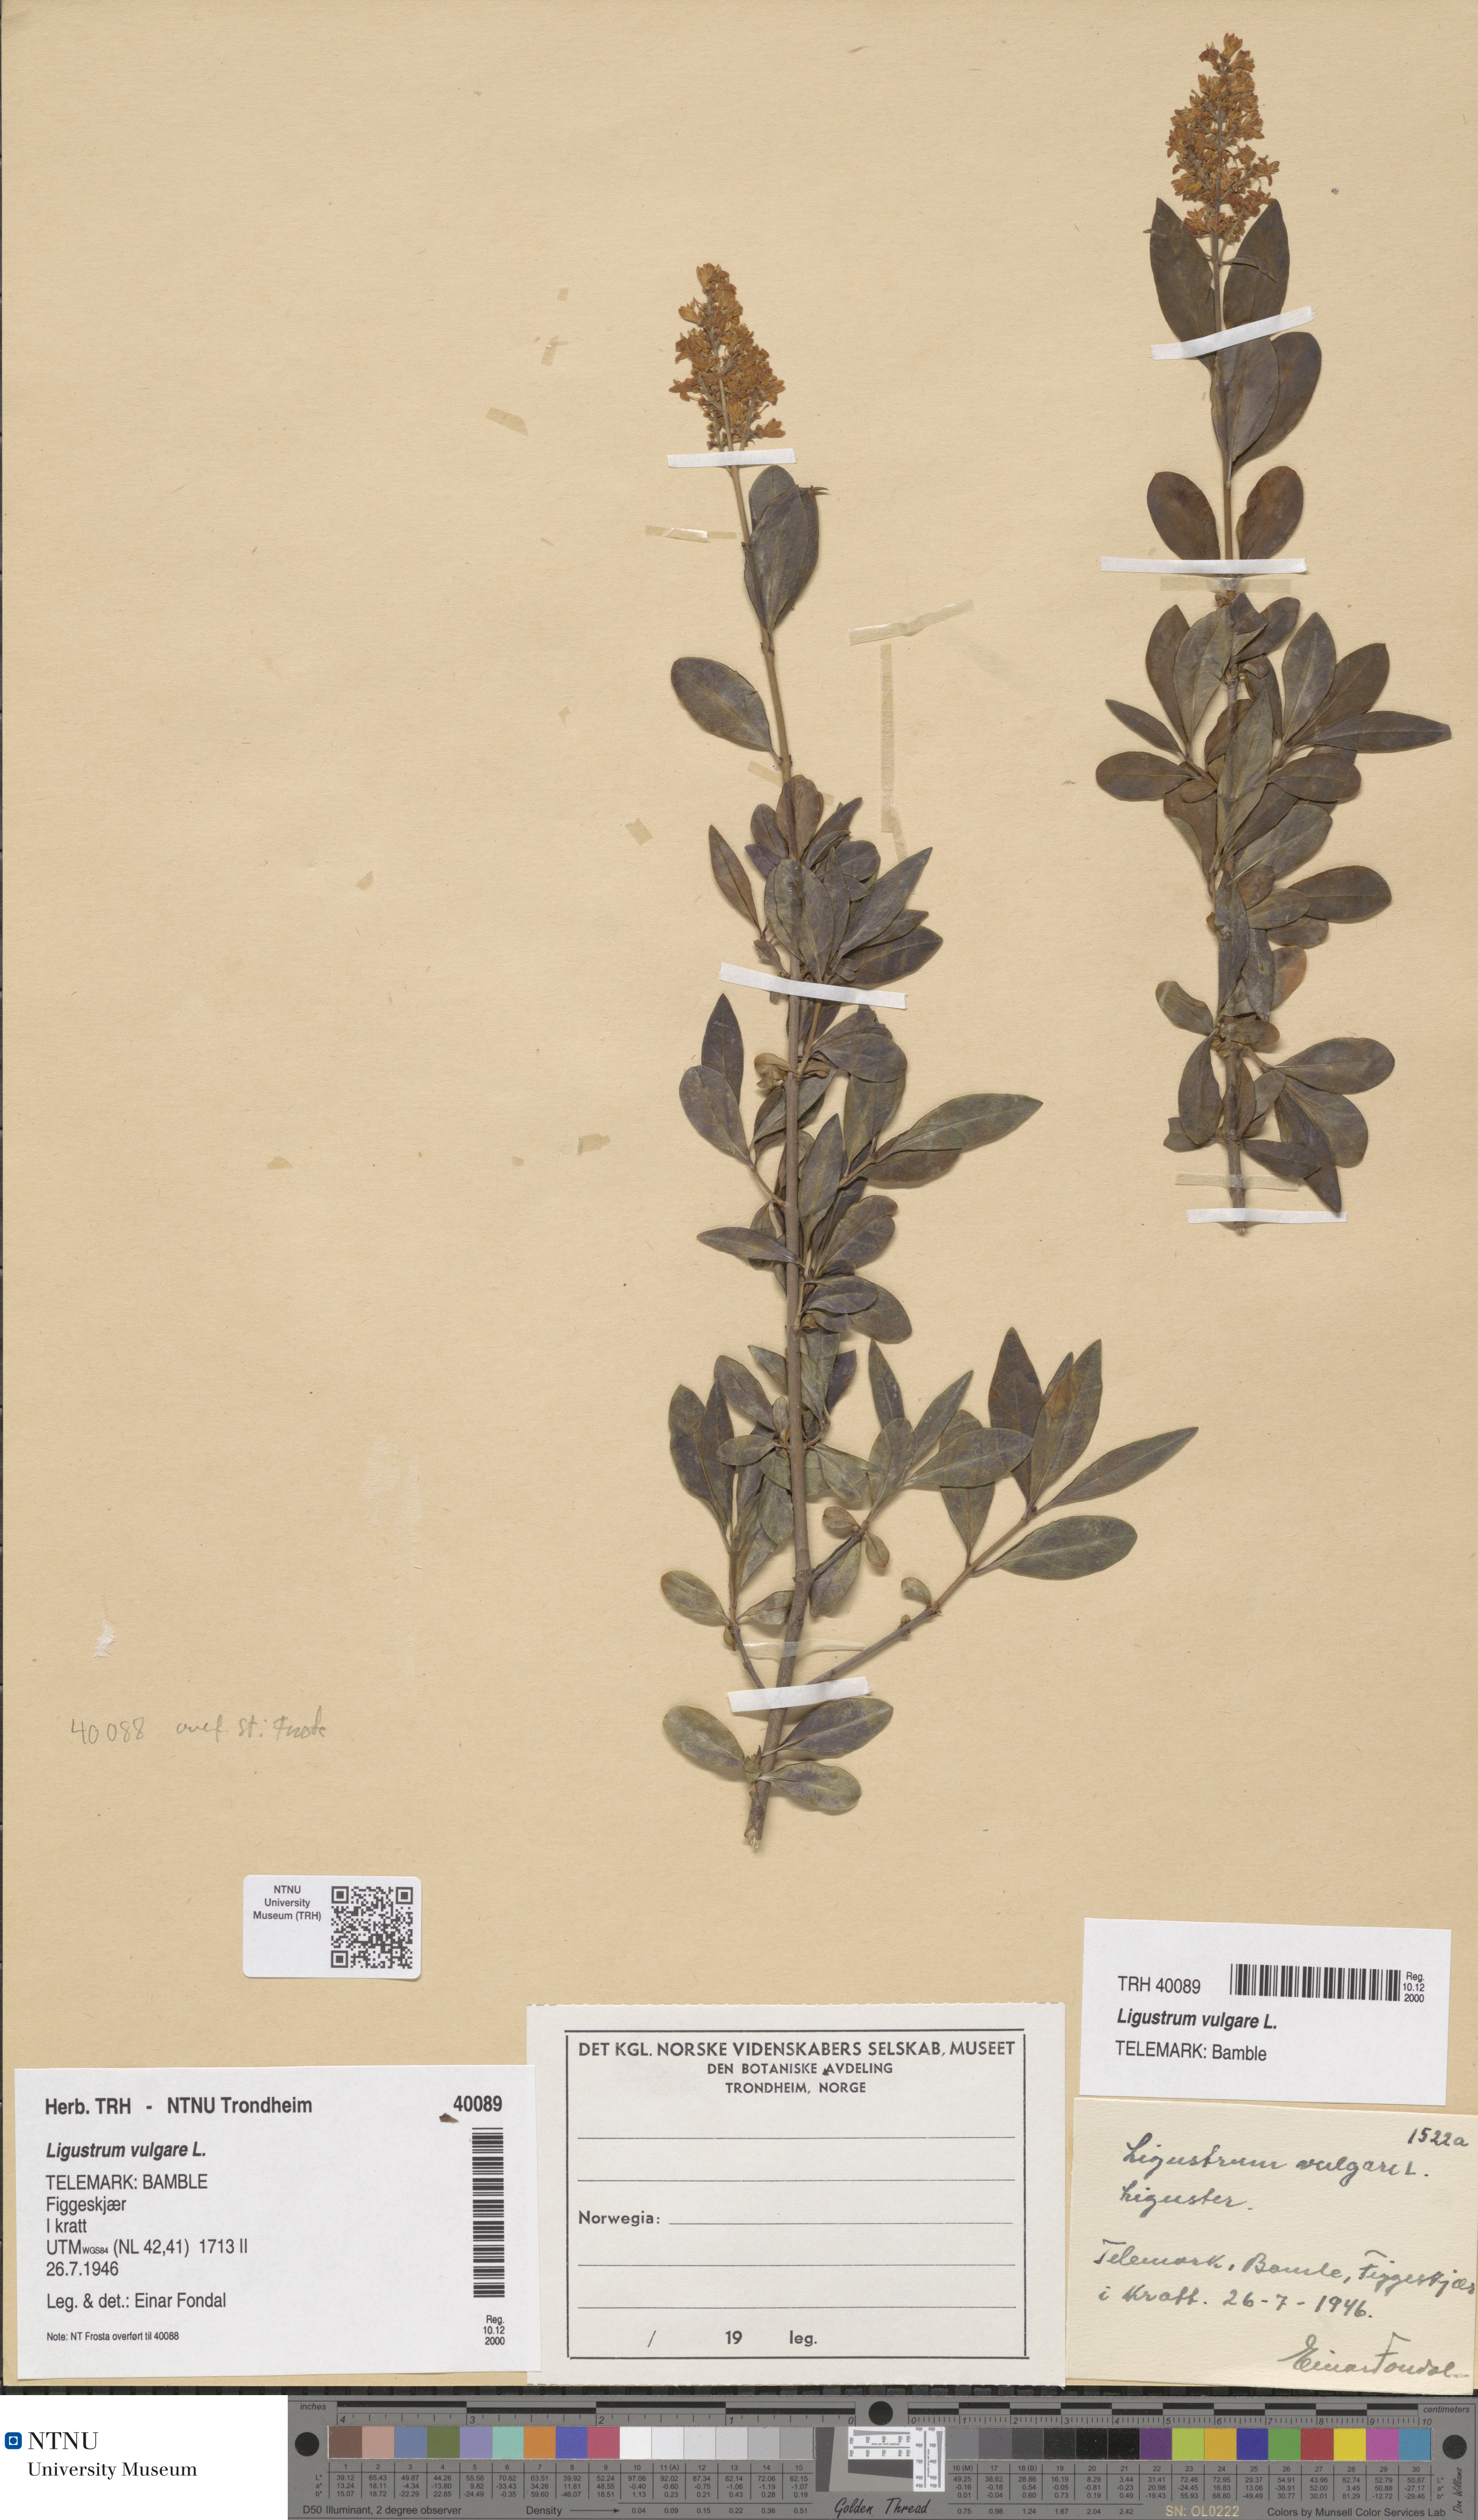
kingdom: Plantae
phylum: Tracheophyta
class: Magnoliopsida
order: Lamiales
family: Oleaceae
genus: Ligustrum
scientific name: Ligustrum vulgare
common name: Wild privet
